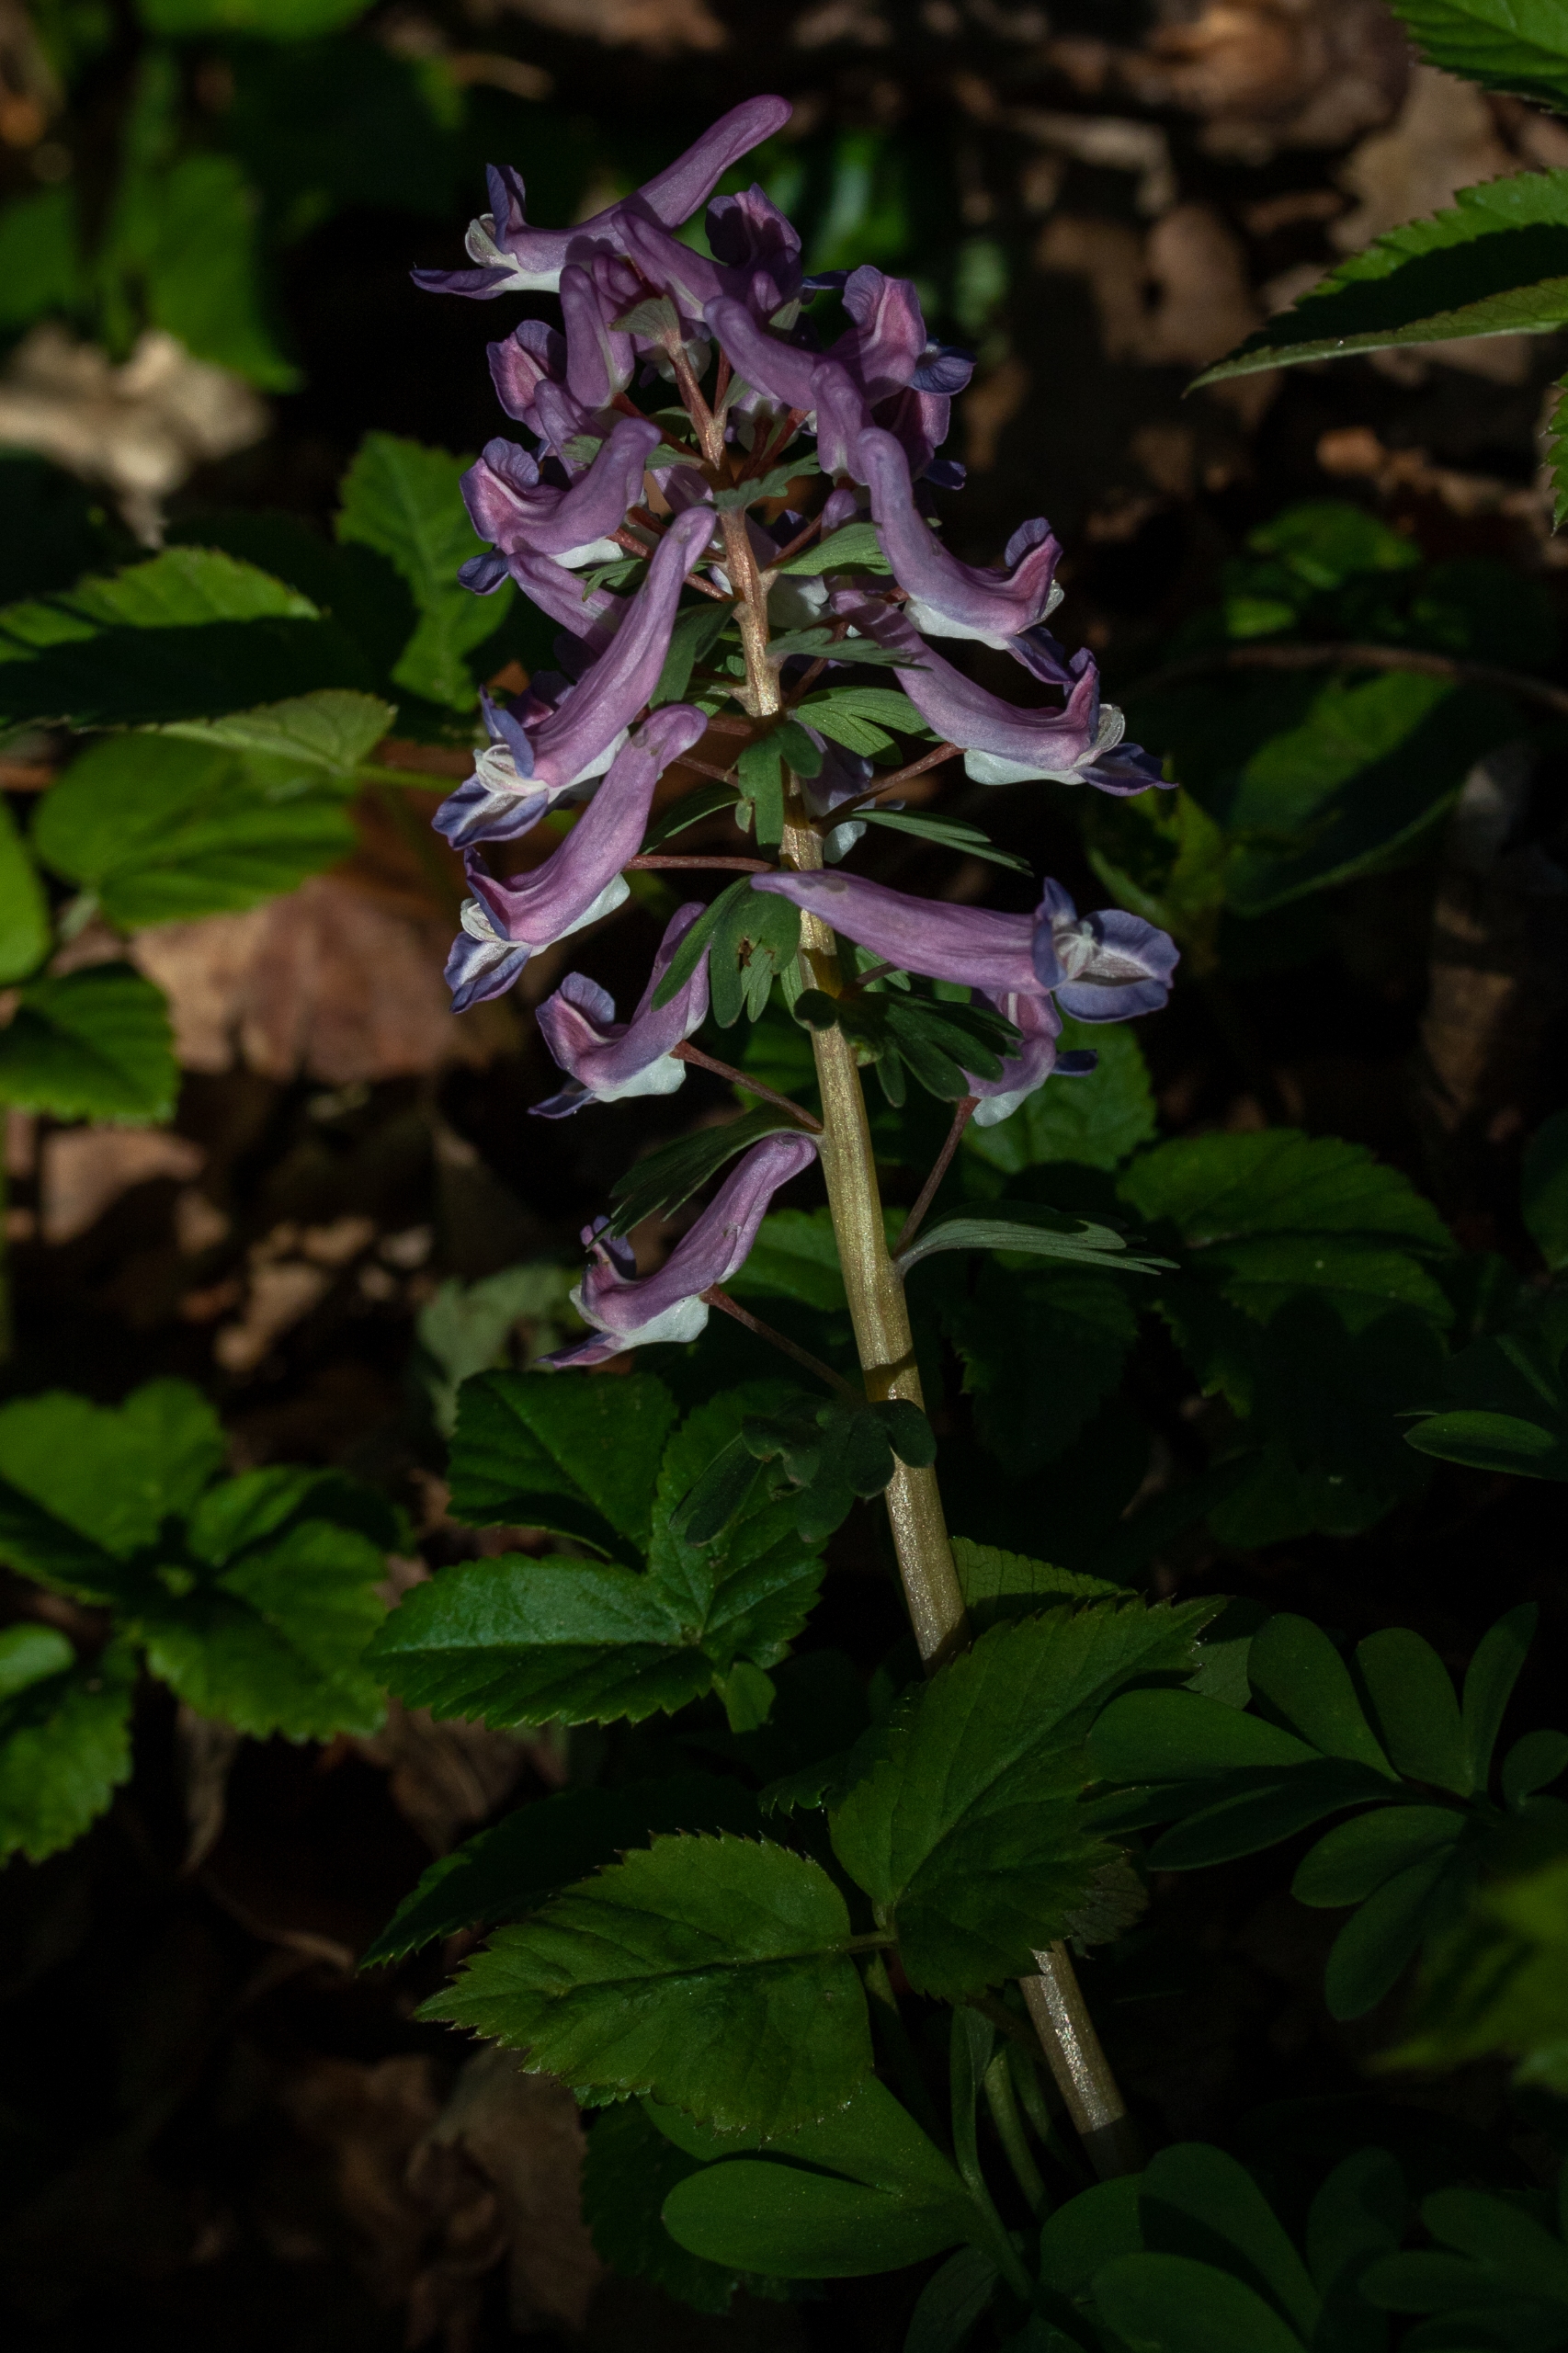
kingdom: Plantae
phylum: Tracheophyta
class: Magnoliopsida
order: Ranunculales
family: Papaveraceae
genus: Corydalis
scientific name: Corydalis solida
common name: Langstilket lærkespore
